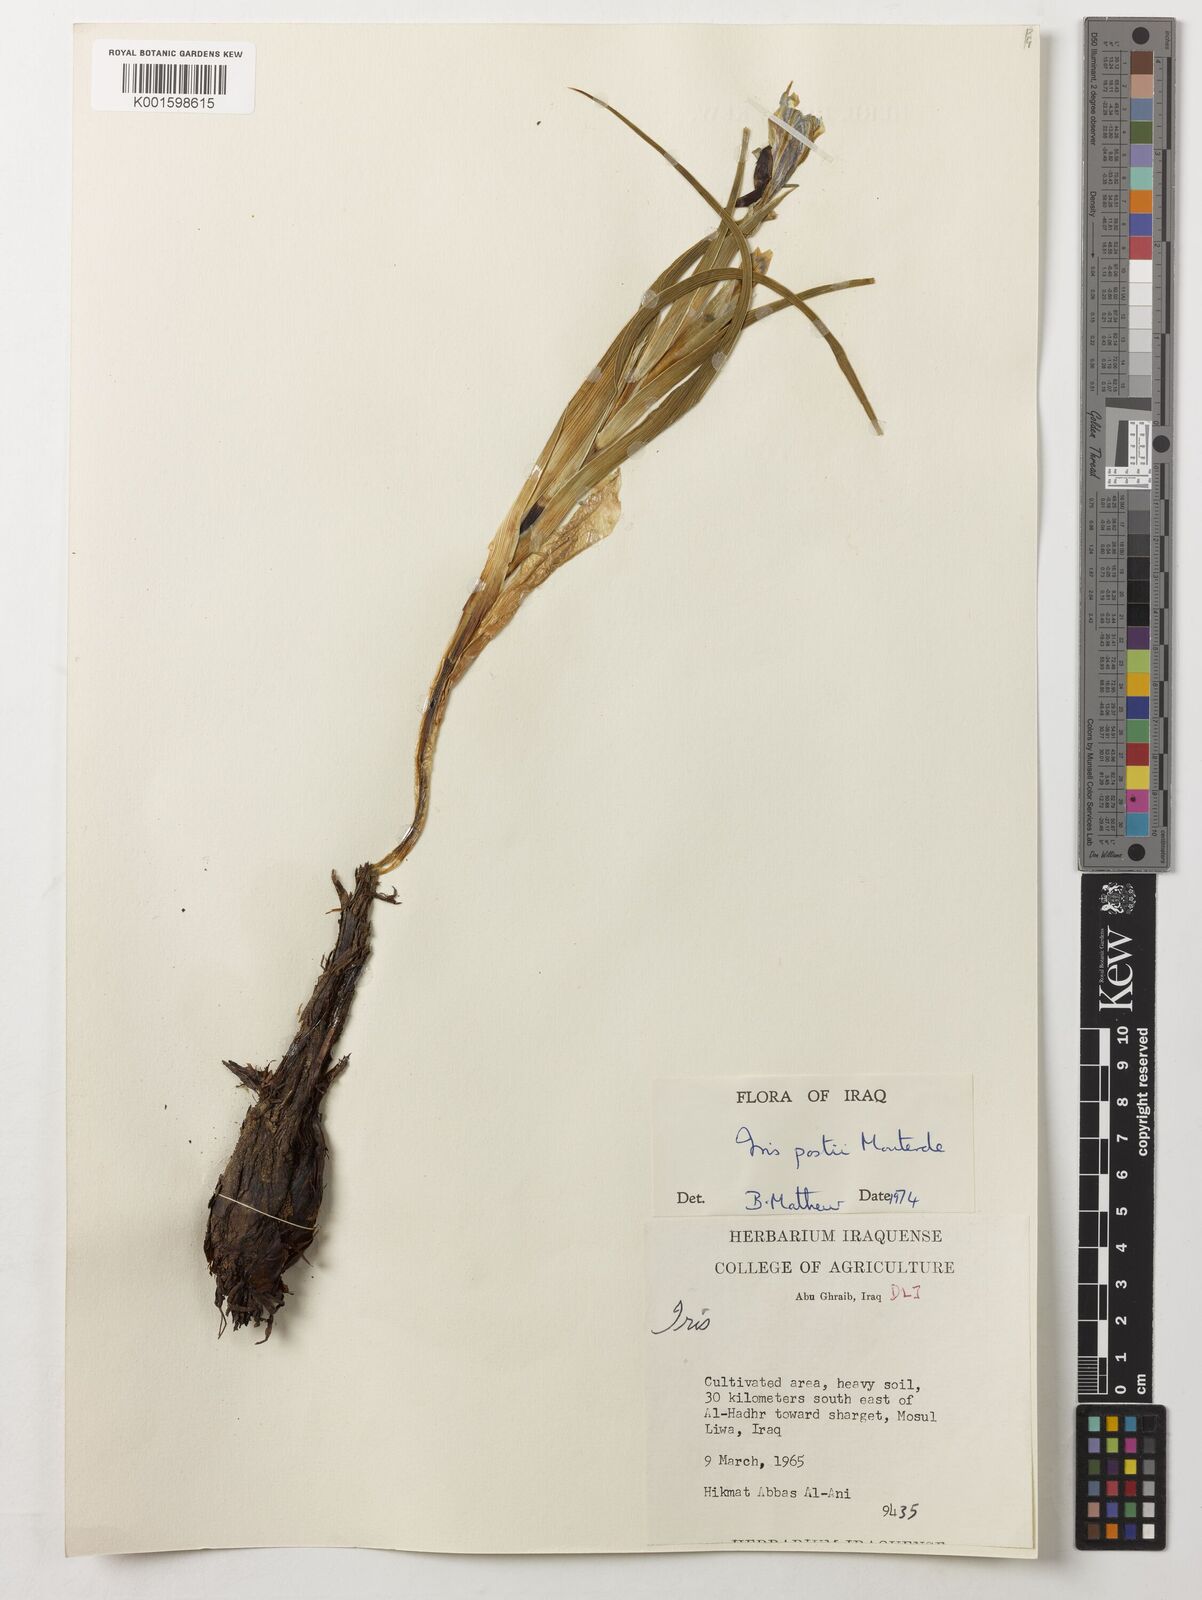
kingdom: Plantae
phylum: Tracheophyta
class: Liliopsida
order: Asparagales
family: Iridaceae
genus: Iris
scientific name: Iris postii
